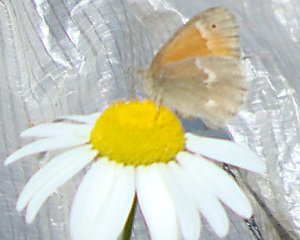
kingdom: Animalia
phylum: Arthropoda
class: Insecta
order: Lepidoptera
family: Nymphalidae
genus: Coenonympha
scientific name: Coenonympha tullia
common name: Large Heath
